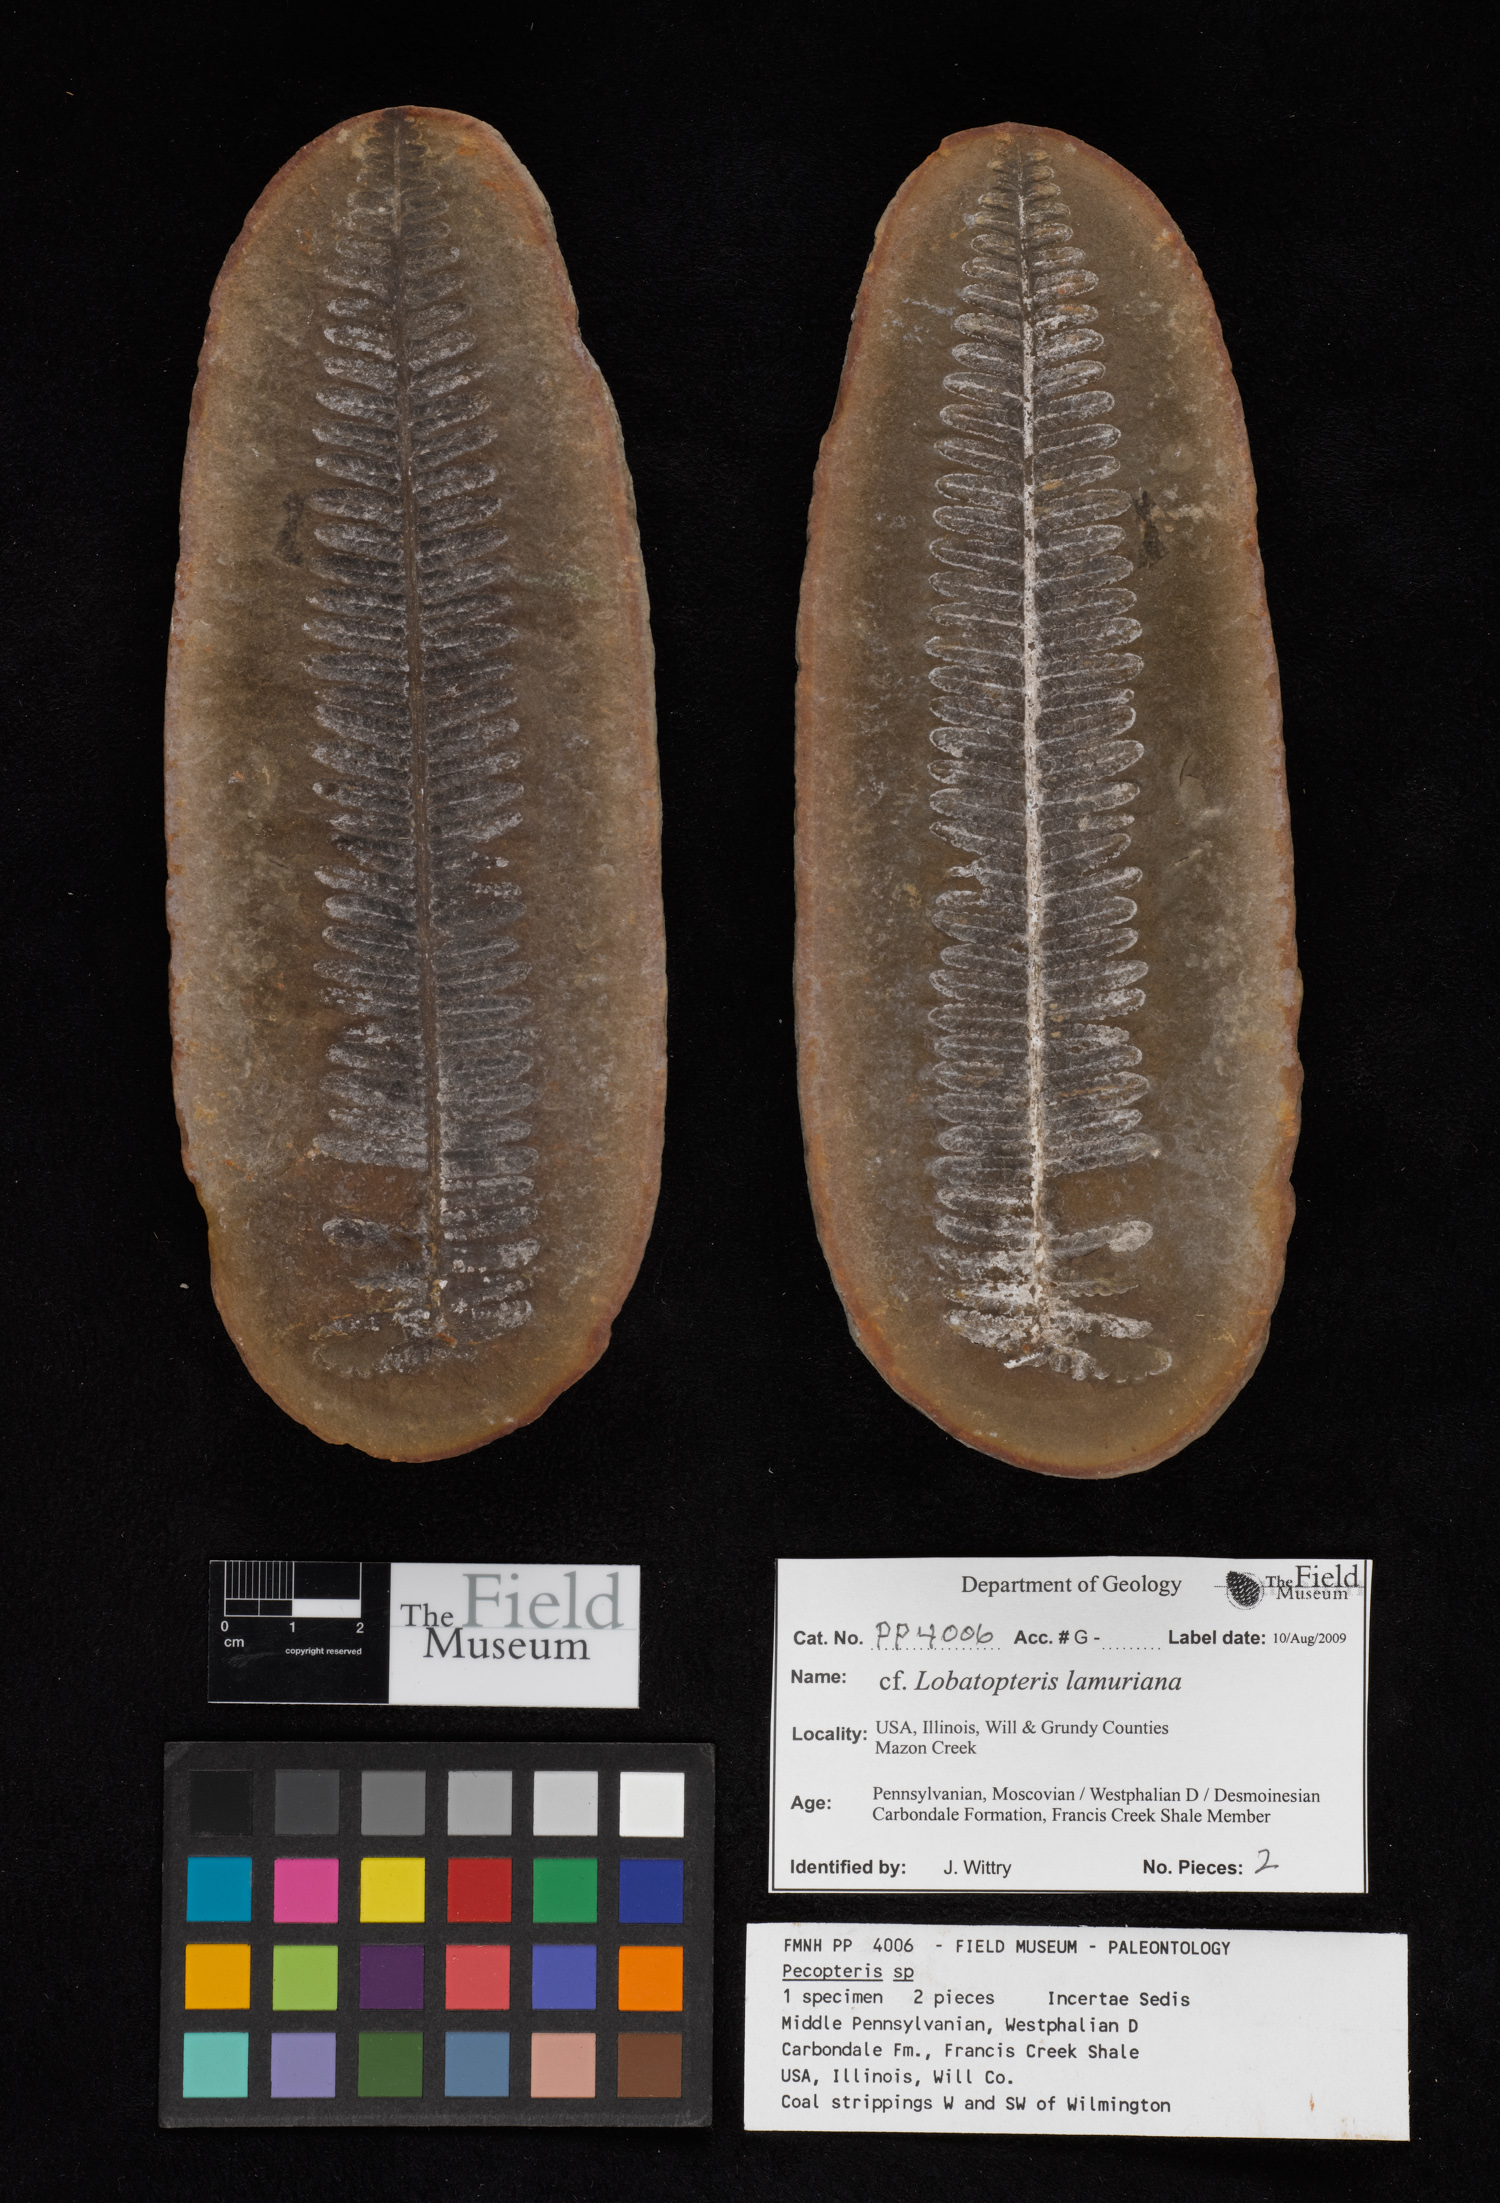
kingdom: Plantae
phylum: Tracheophyta
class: Polypodiopsida
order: Marattiales
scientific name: Marattiales
